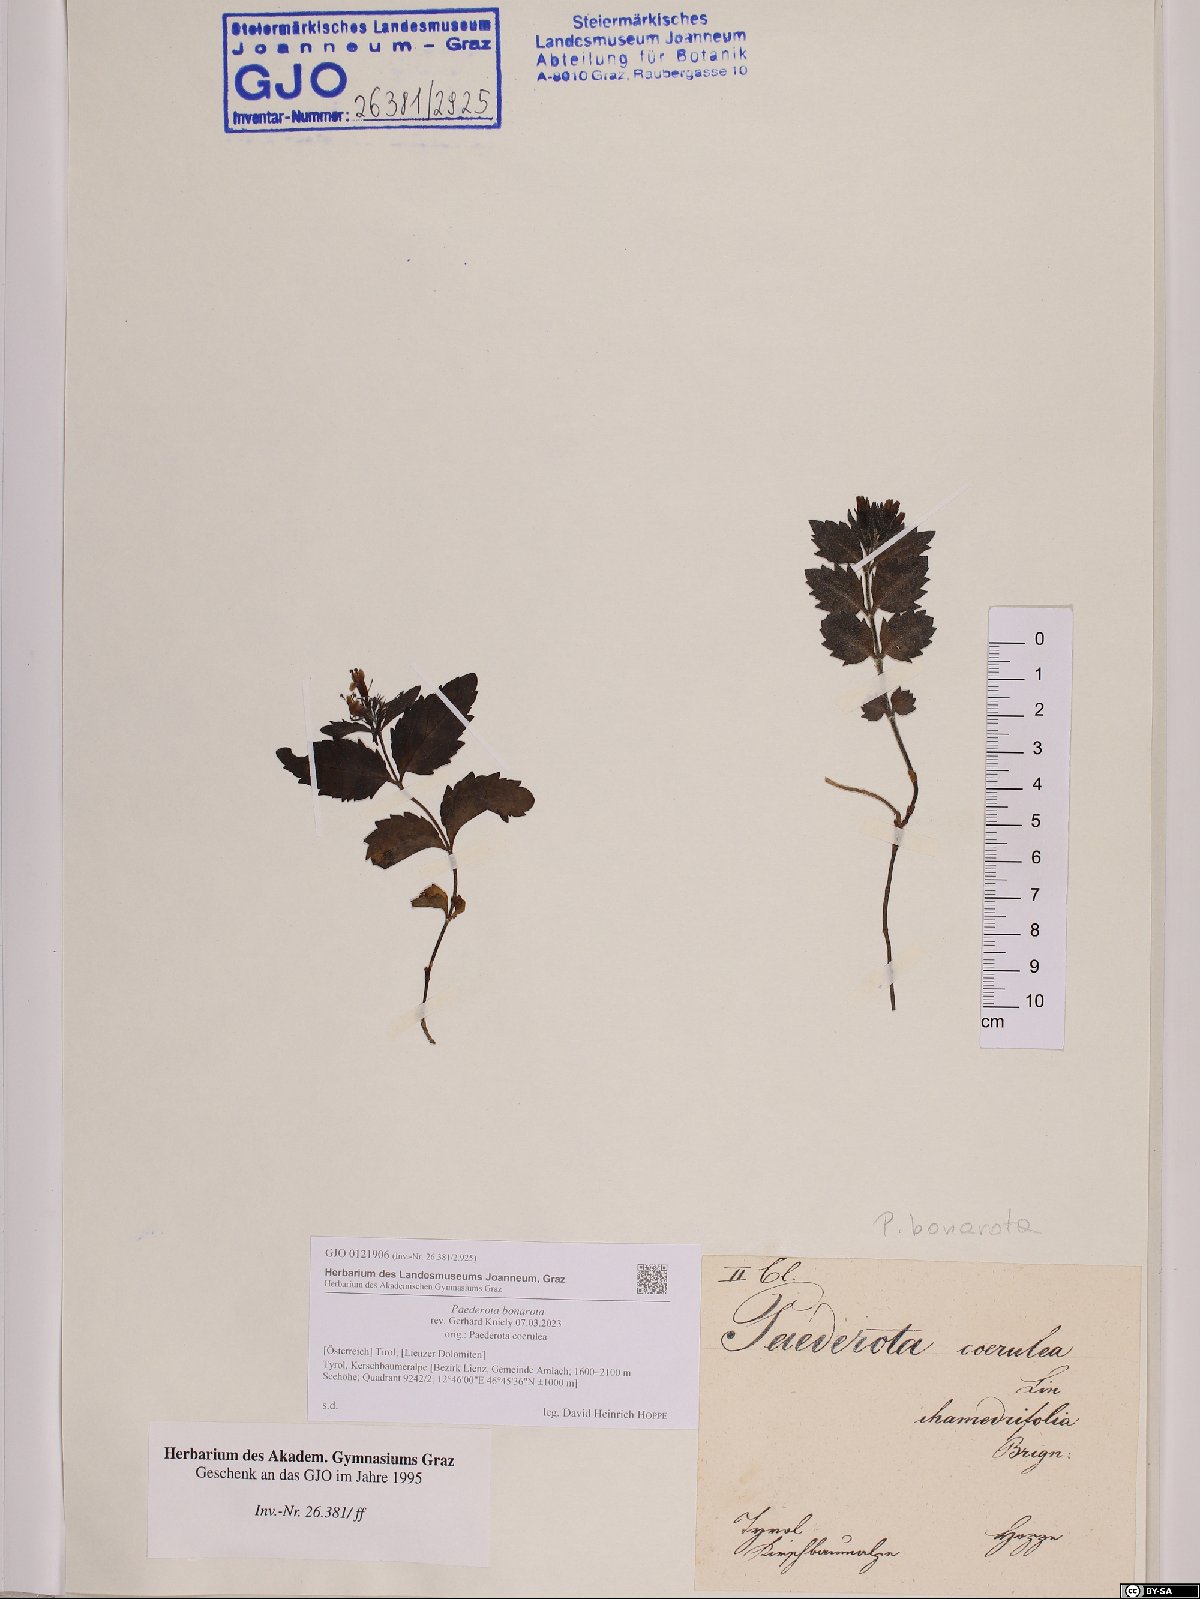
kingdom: Plantae
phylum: Tracheophyta
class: Magnoliopsida
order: Lamiales
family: Plantaginaceae
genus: Paederota
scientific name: Paederota bonarota
